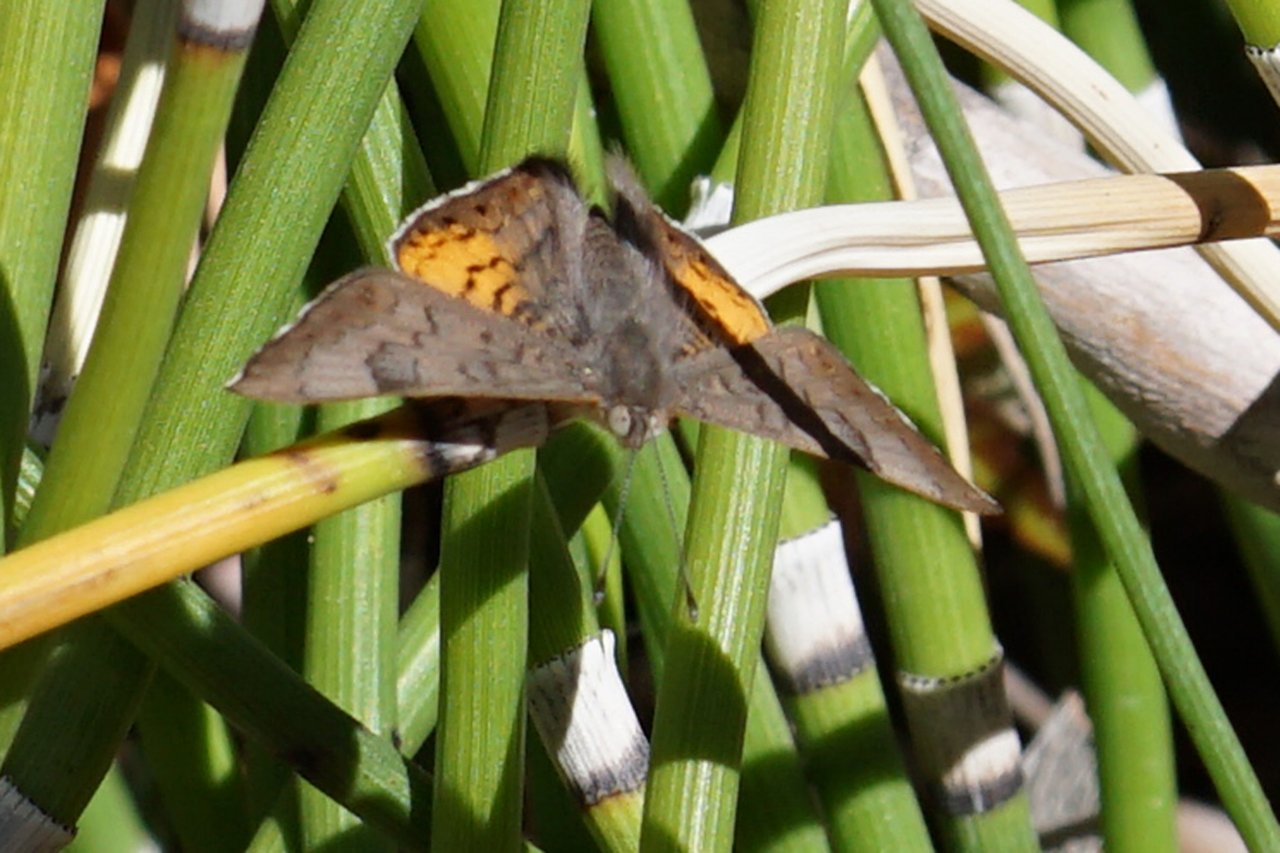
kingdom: Animalia
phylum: Arthropoda
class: Insecta
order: Lepidoptera
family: Lycaenidae
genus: Emesis
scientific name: Emesis zela
